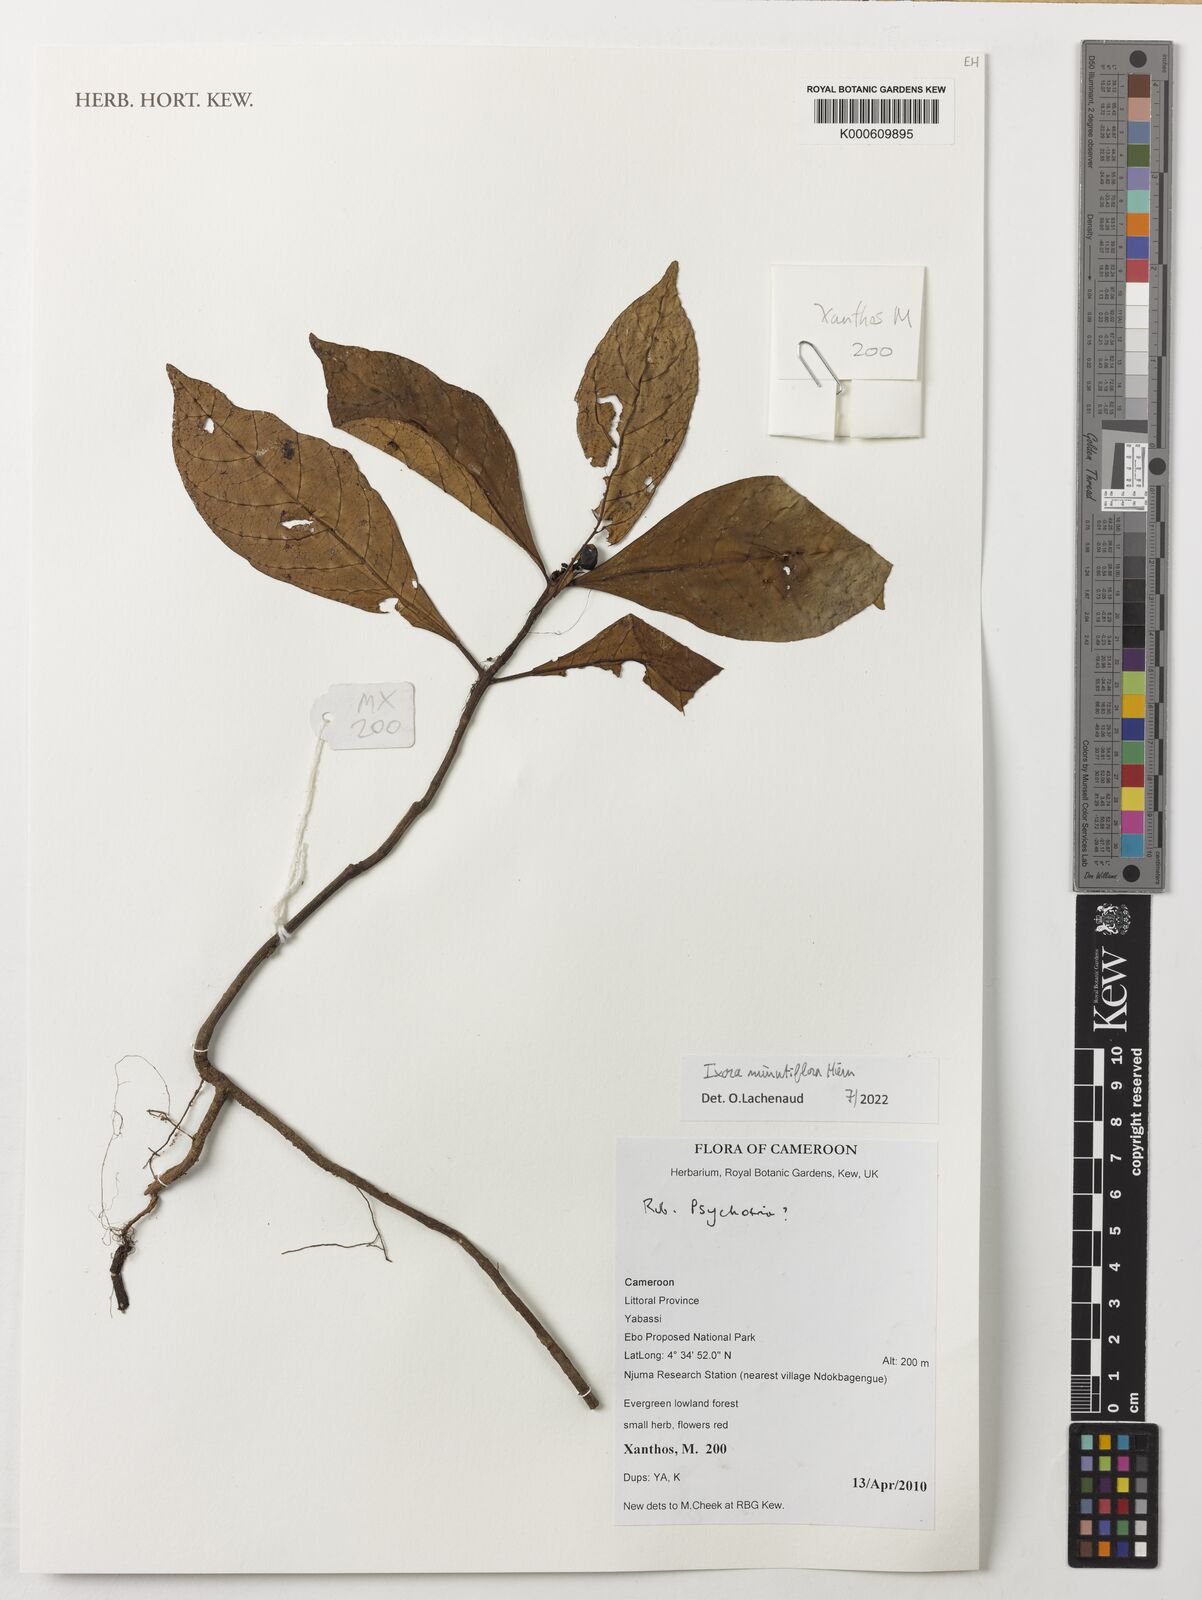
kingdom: Plantae
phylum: Tracheophyta
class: Magnoliopsida
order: Gentianales
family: Rubiaceae
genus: Ixora
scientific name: Ixora minutiflora
